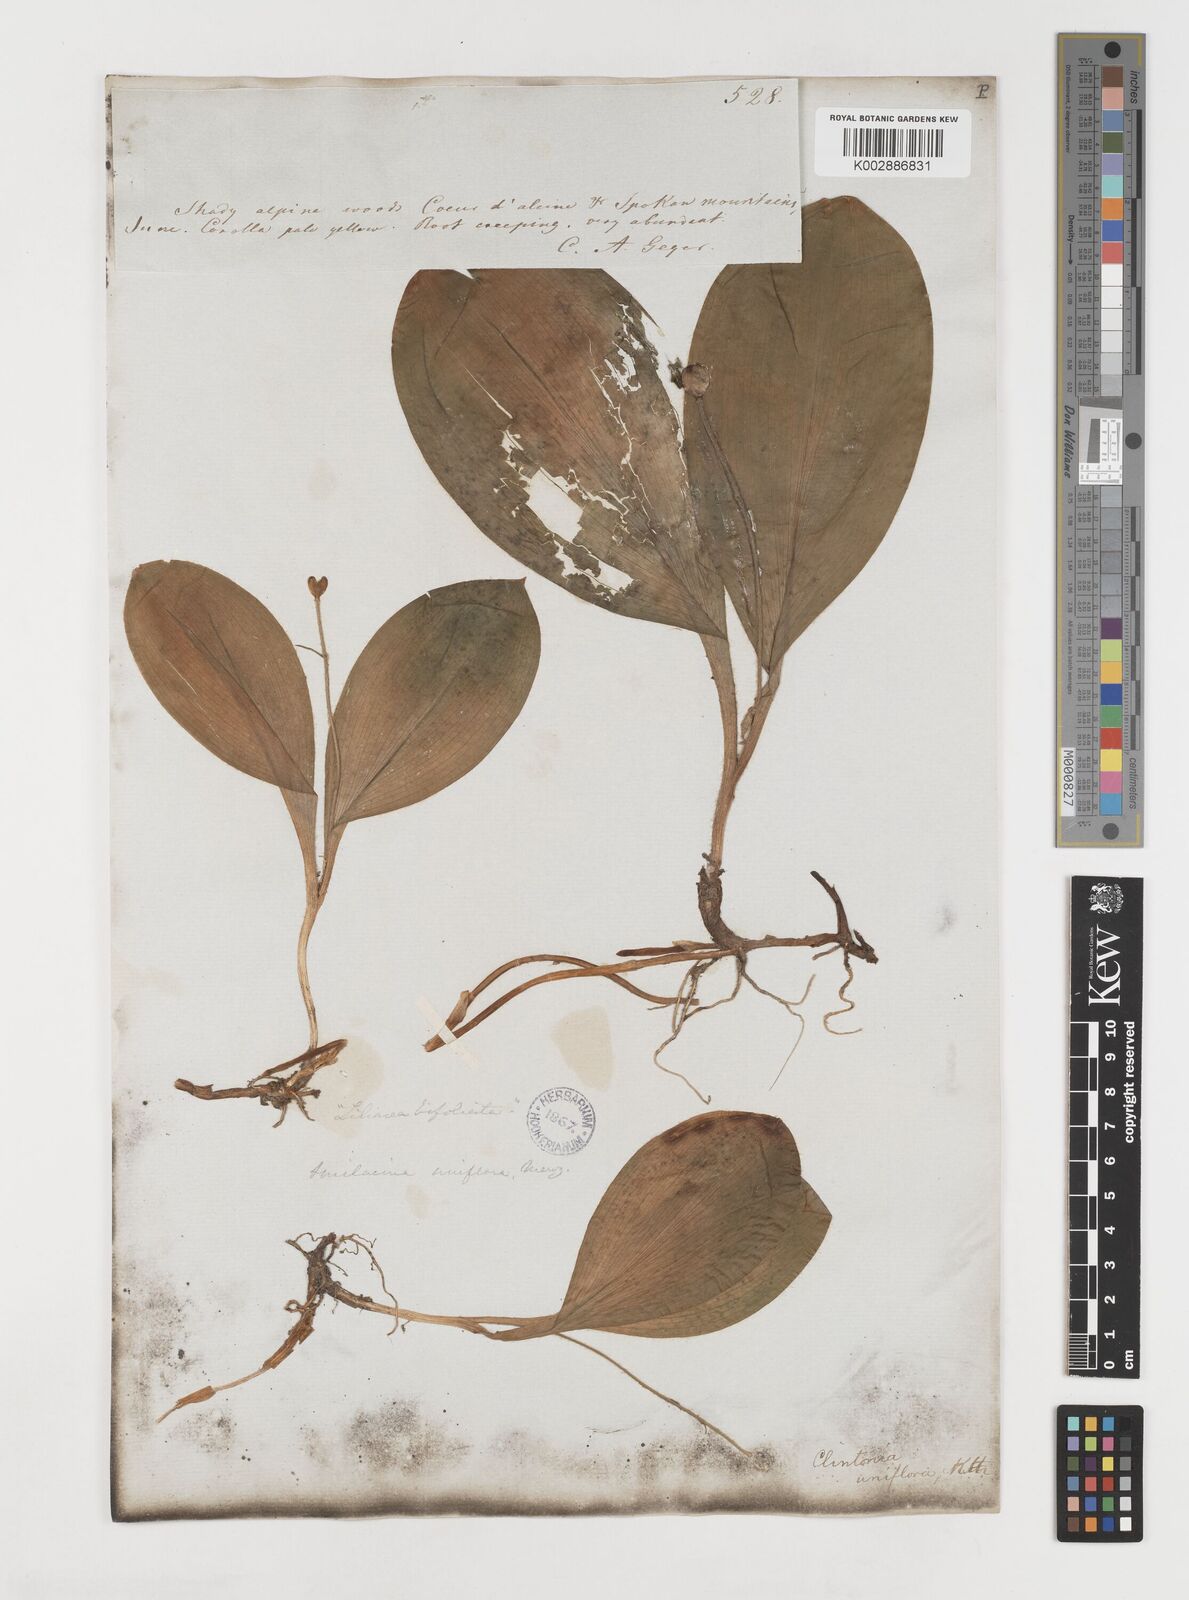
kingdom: Plantae
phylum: Tracheophyta
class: Liliopsida
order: Liliales
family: Liliaceae
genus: Clintonia
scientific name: Clintonia uniflora
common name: Queen's cup
